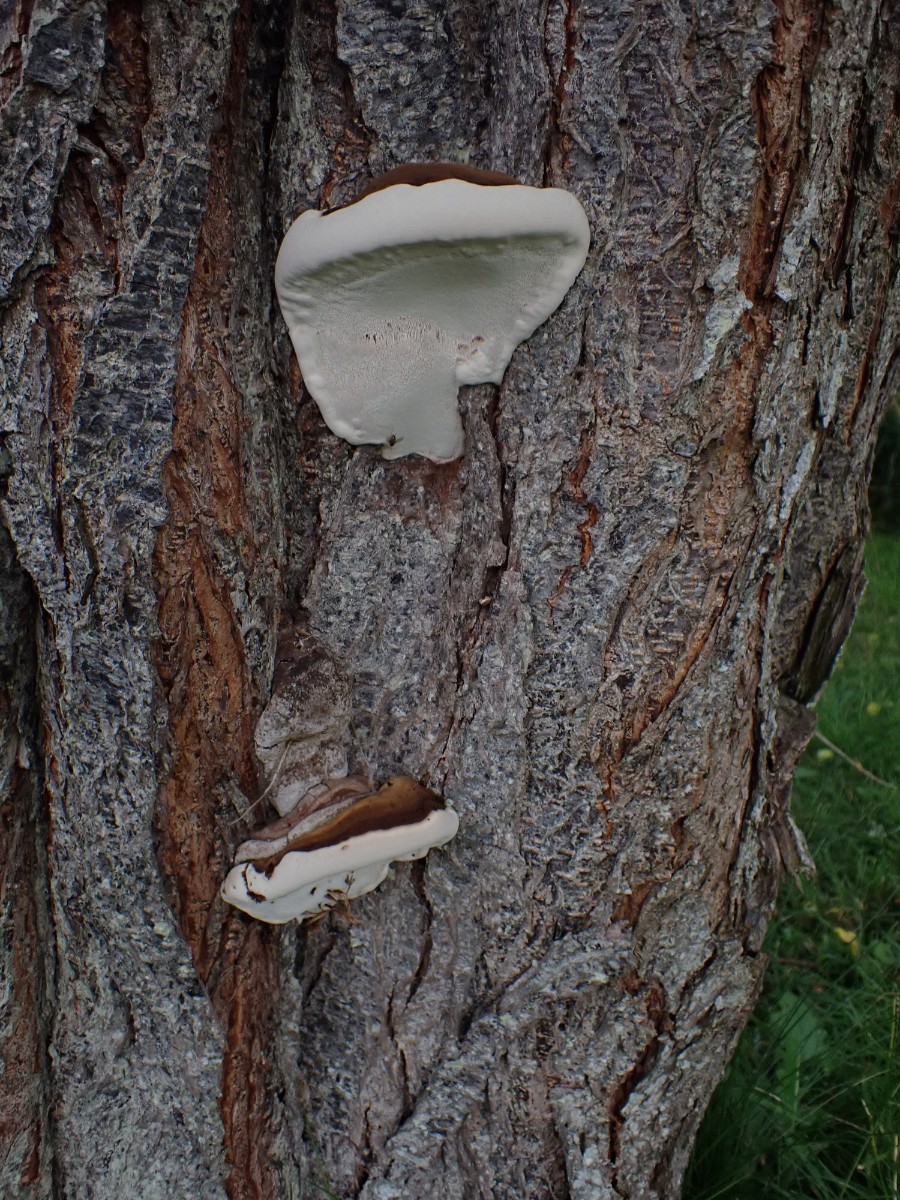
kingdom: Fungi
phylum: Basidiomycota
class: Agaricomycetes
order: Polyporales
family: Polyporaceae
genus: Ganoderma
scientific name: Ganoderma
